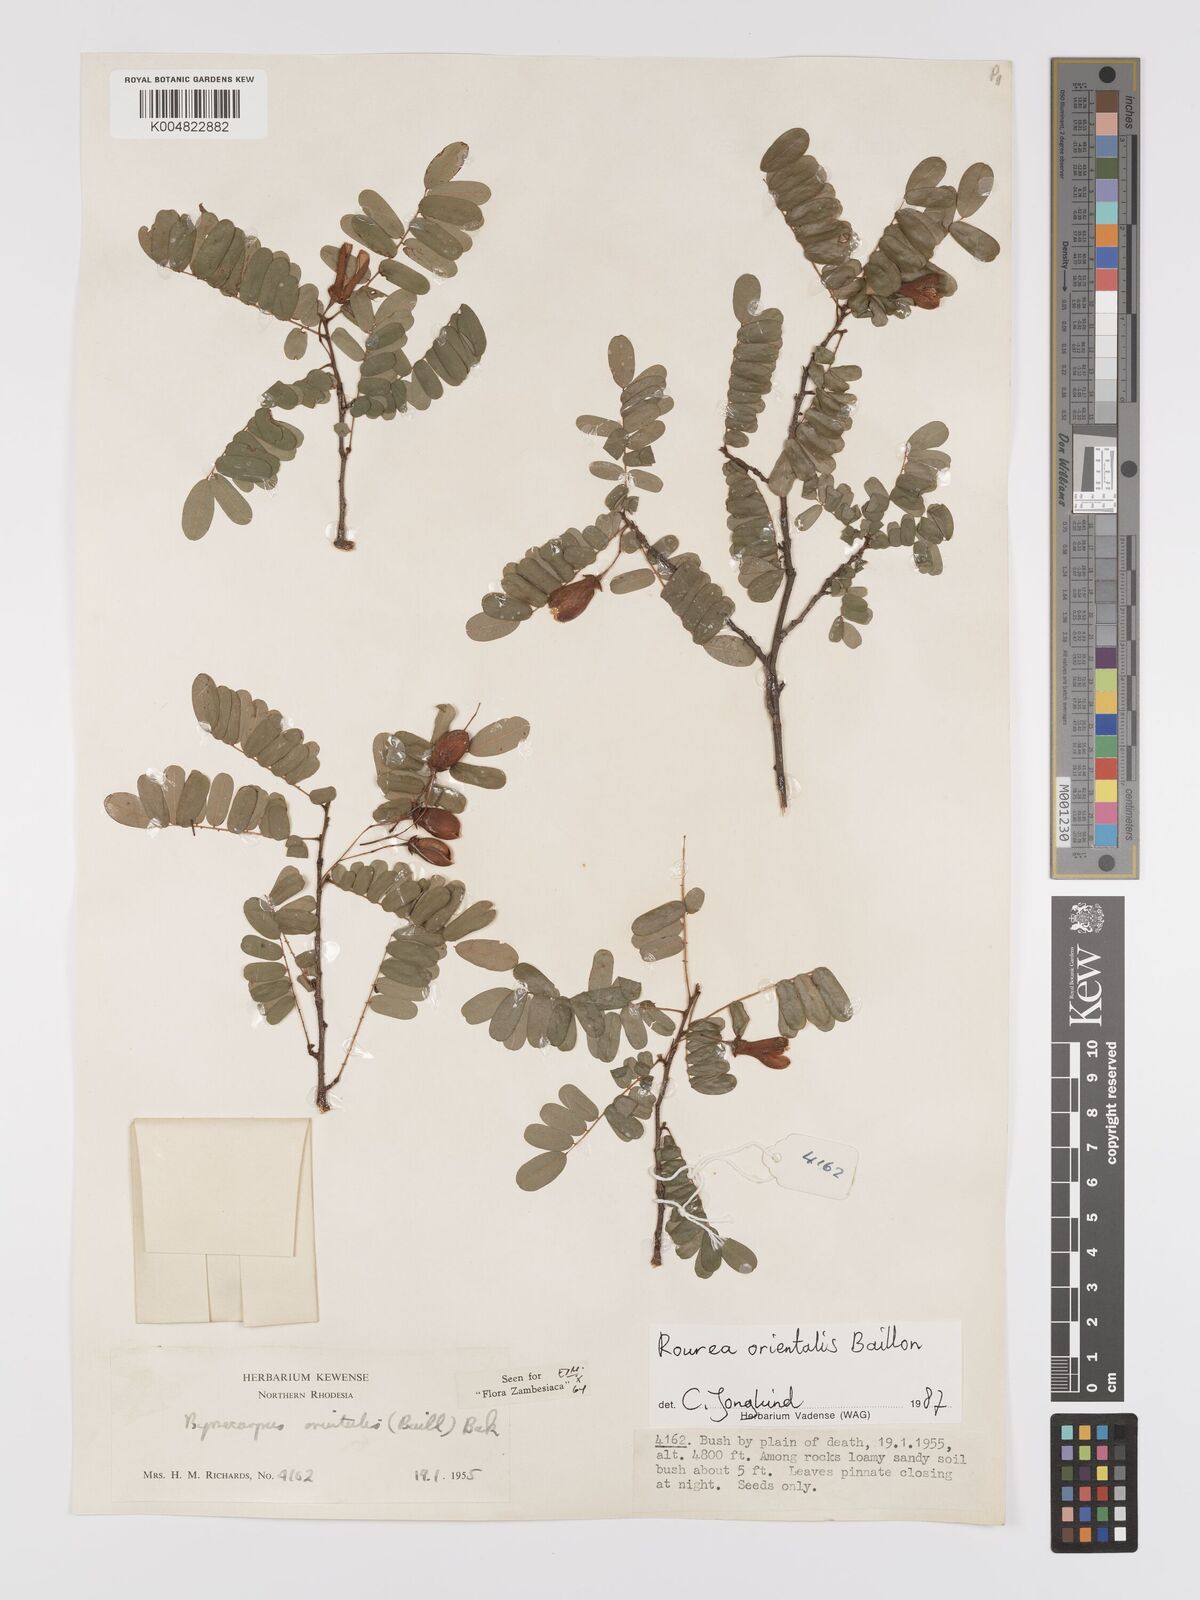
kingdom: Plantae
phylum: Tracheophyta
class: Magnoliopsida
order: Oxalidales
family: Connaraceae
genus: Rourea
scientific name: Rourea orientalis
